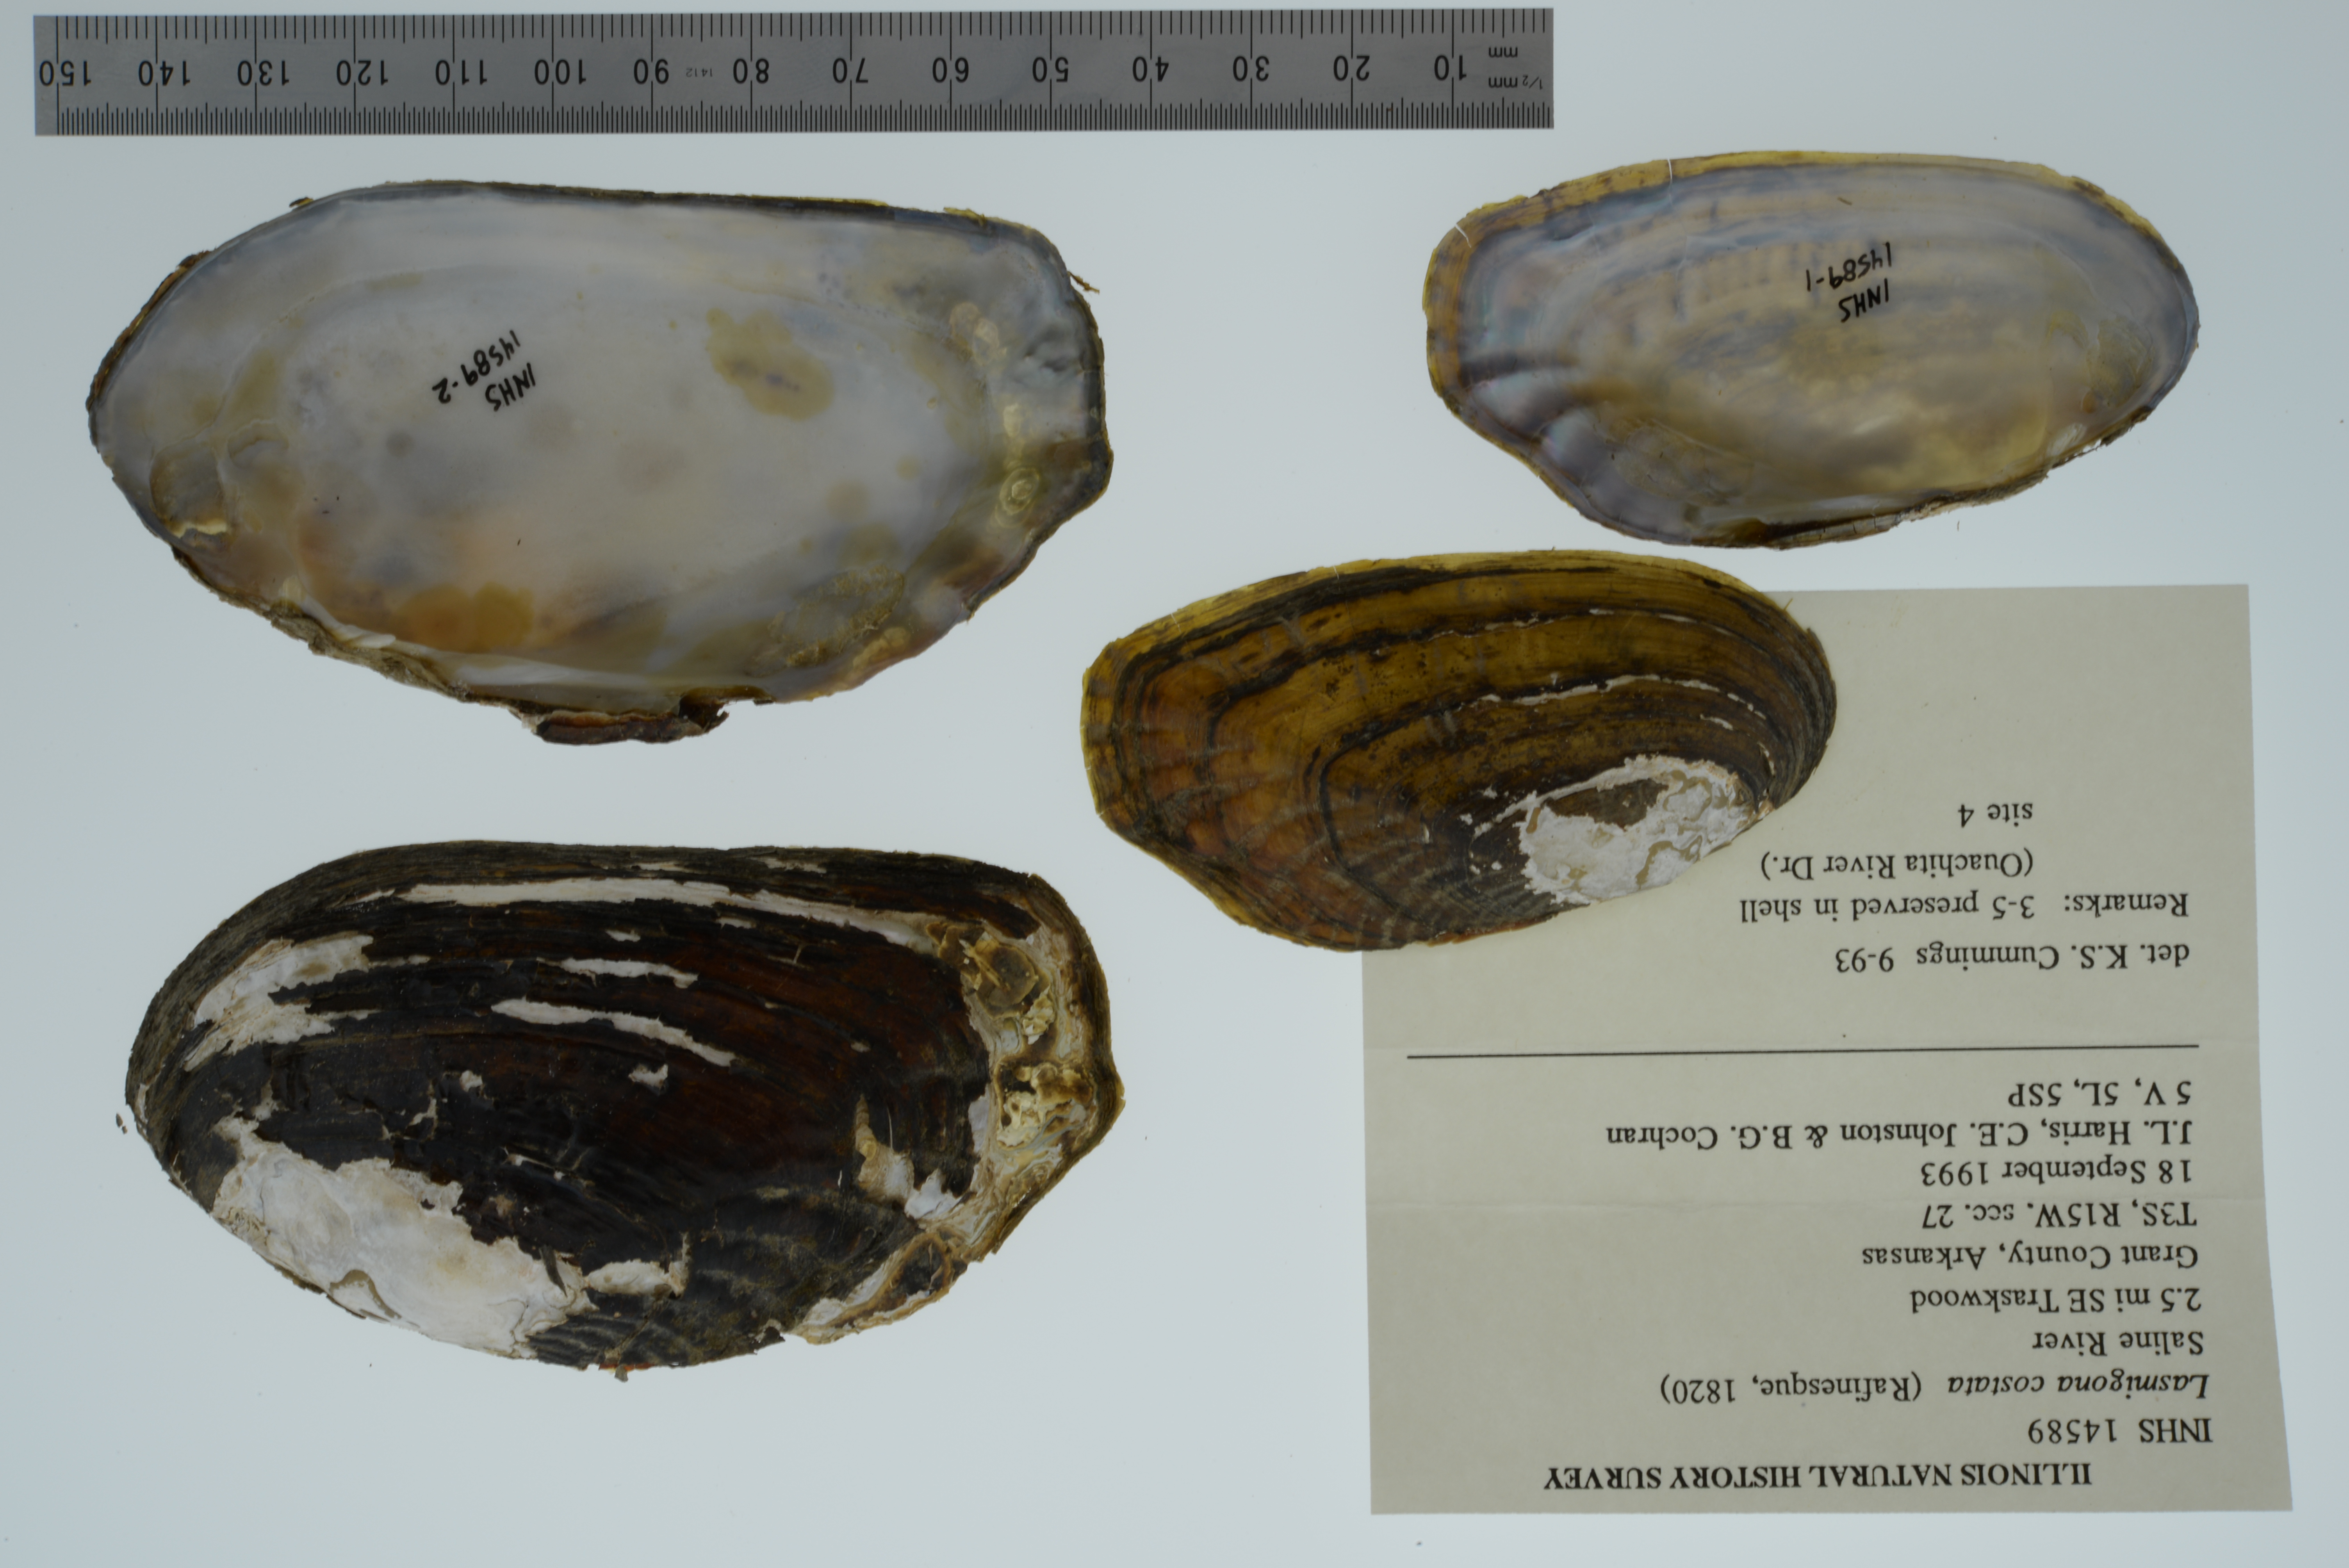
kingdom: Animalia
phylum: Mollusca
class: Bivalvia
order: Unionida
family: Unionidae
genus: Lasmigona
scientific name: Lasmigona costata
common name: Flutedshell
